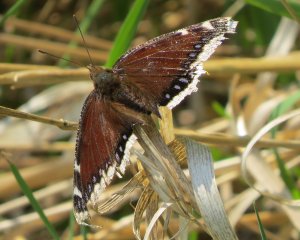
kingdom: Animalia
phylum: Arthropoda
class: Insecta
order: Lepidoptera
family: Nymphalidae
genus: Nymphalis
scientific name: Nymphalis antiopa
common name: Mourning Cloak
